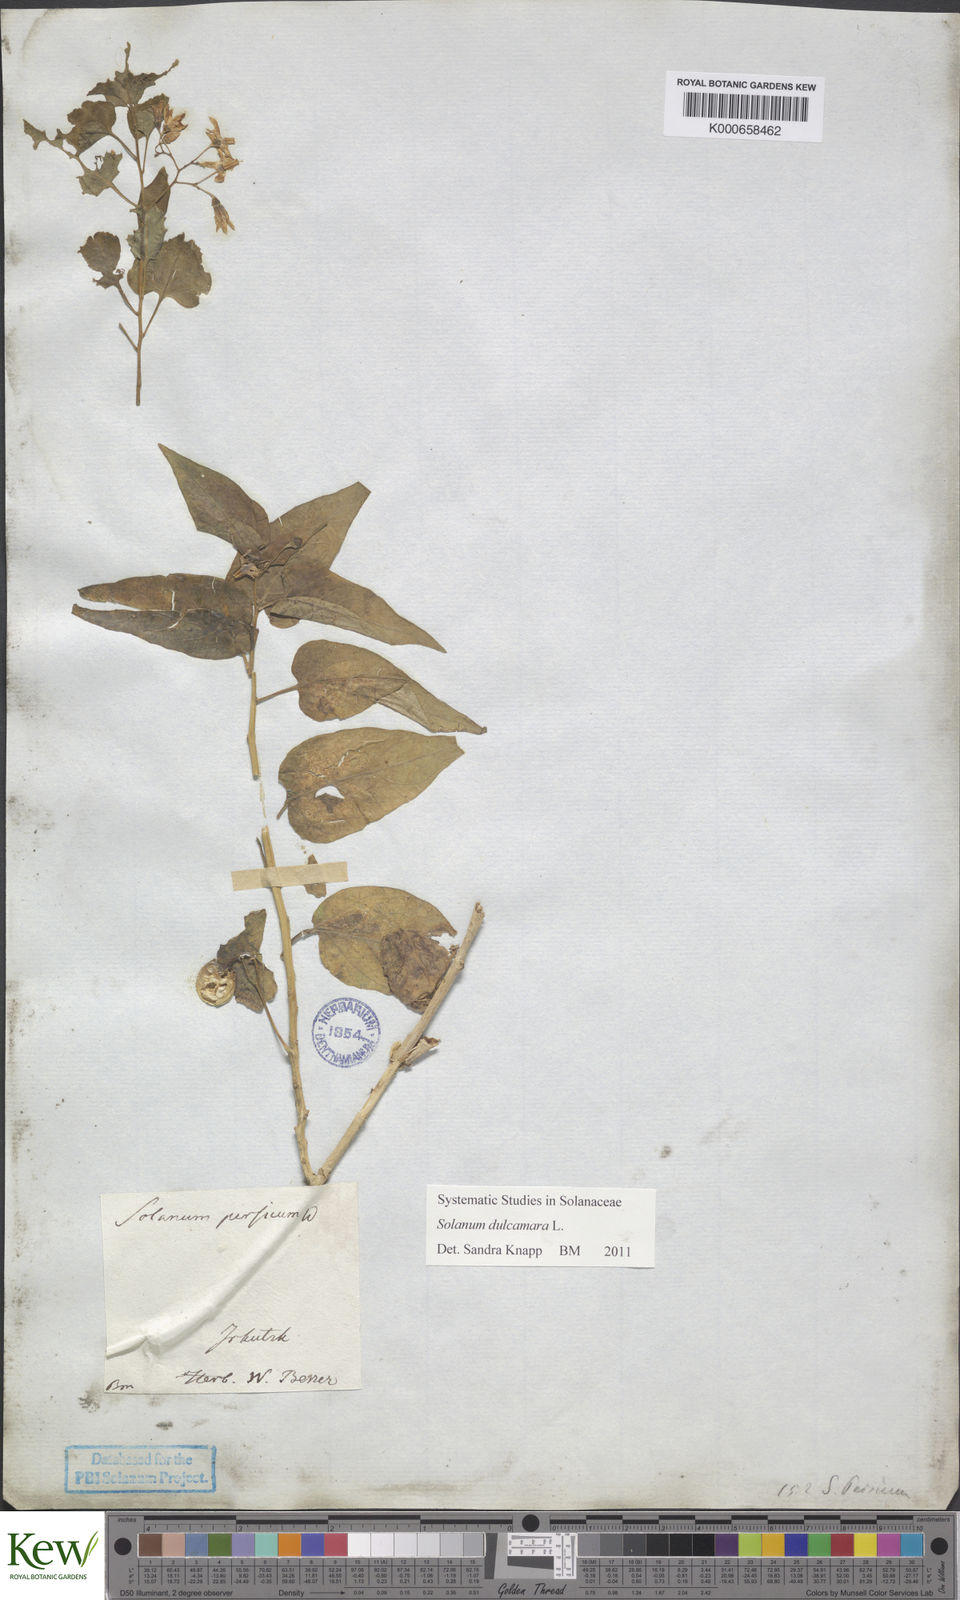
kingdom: Plantae
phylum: Tracheophyta
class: Magnoliopsida
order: Solanales
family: Solanaceae
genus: Solanum
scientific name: Solanum dulcamara
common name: Climbing nightshade
